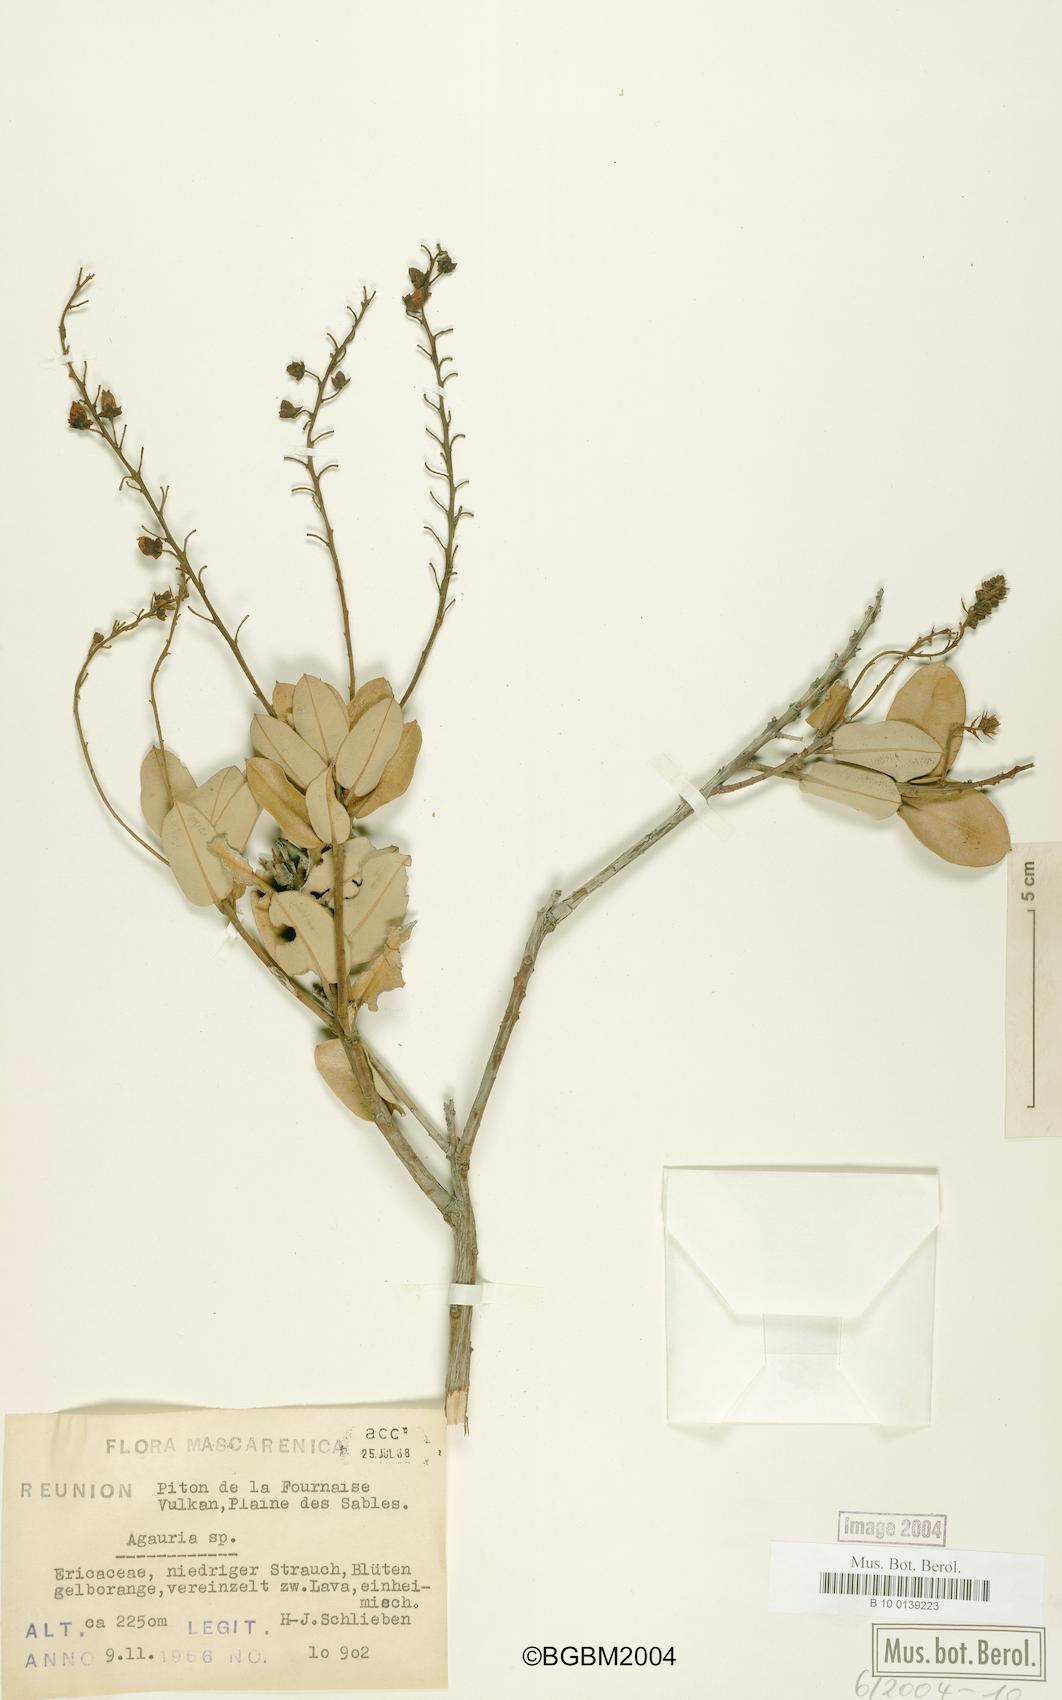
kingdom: Plantae
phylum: Tracheophyta
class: Magnoliopsida
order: Ericales
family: Ericaceae
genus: Agarista
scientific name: Agarista
